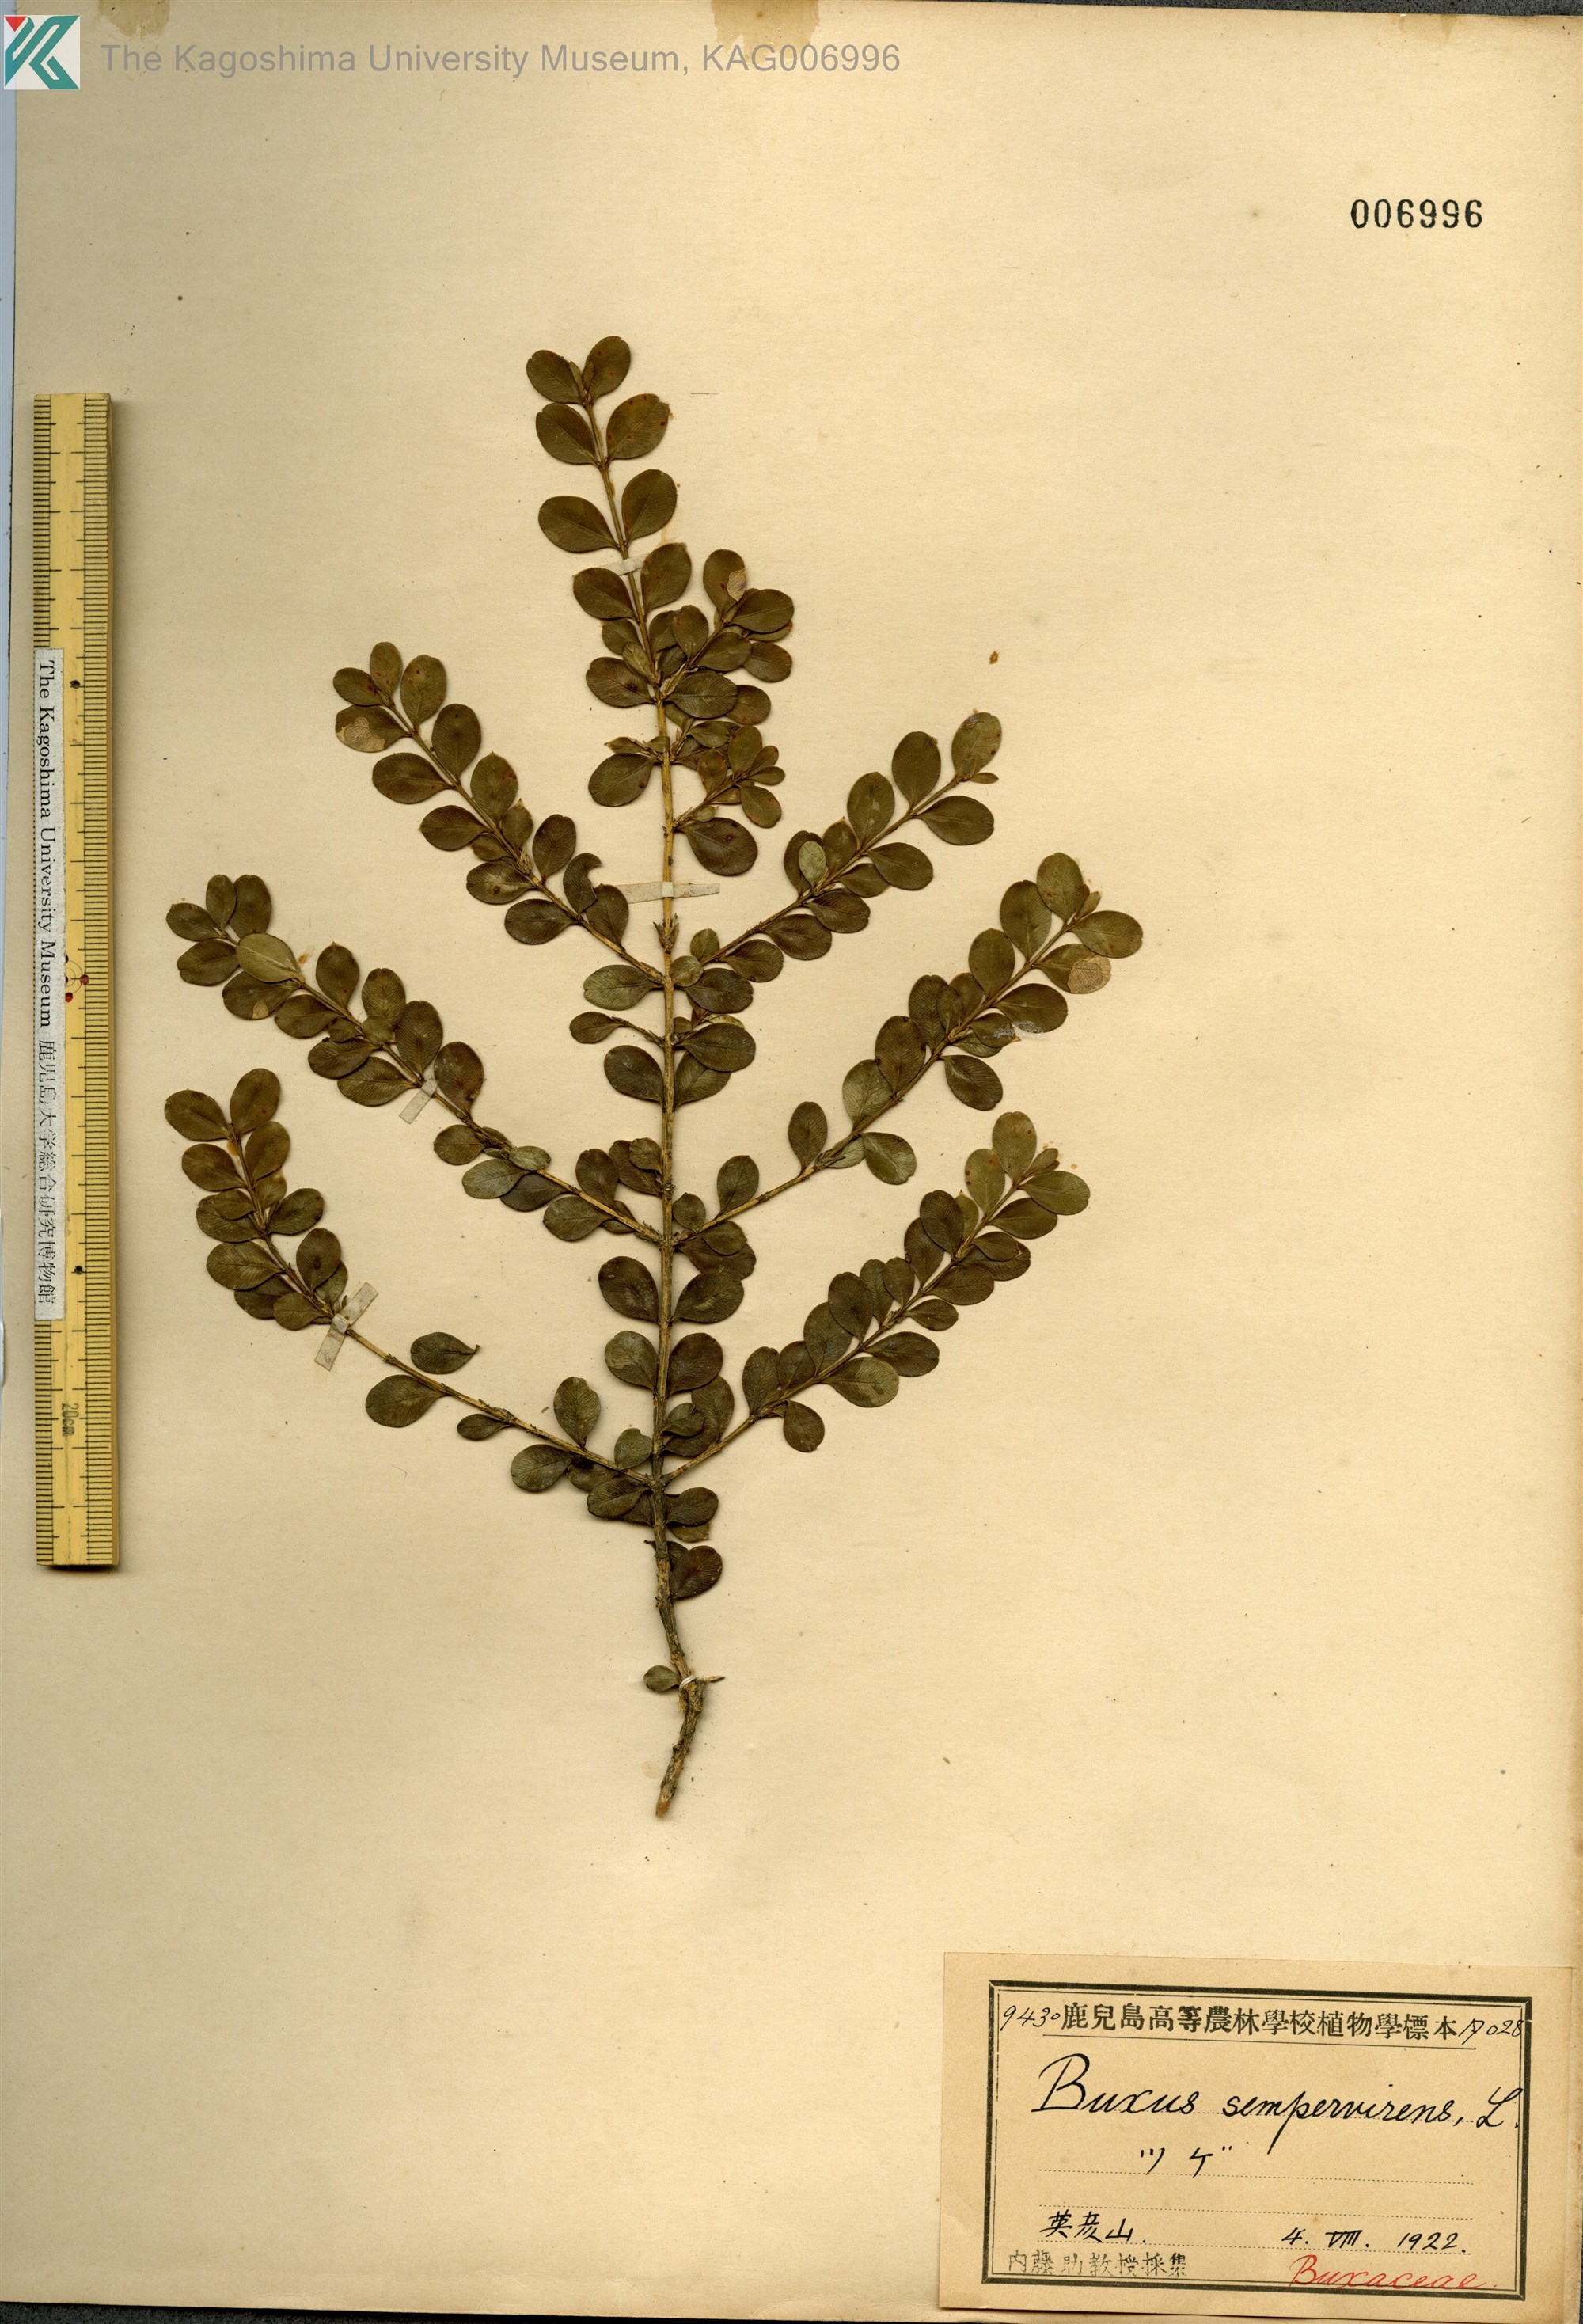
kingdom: Plantae
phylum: Tracheophyta
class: Magnoliopsida
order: Buxales
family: Buxaceae
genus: Buxus
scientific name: Buxus microphylla
